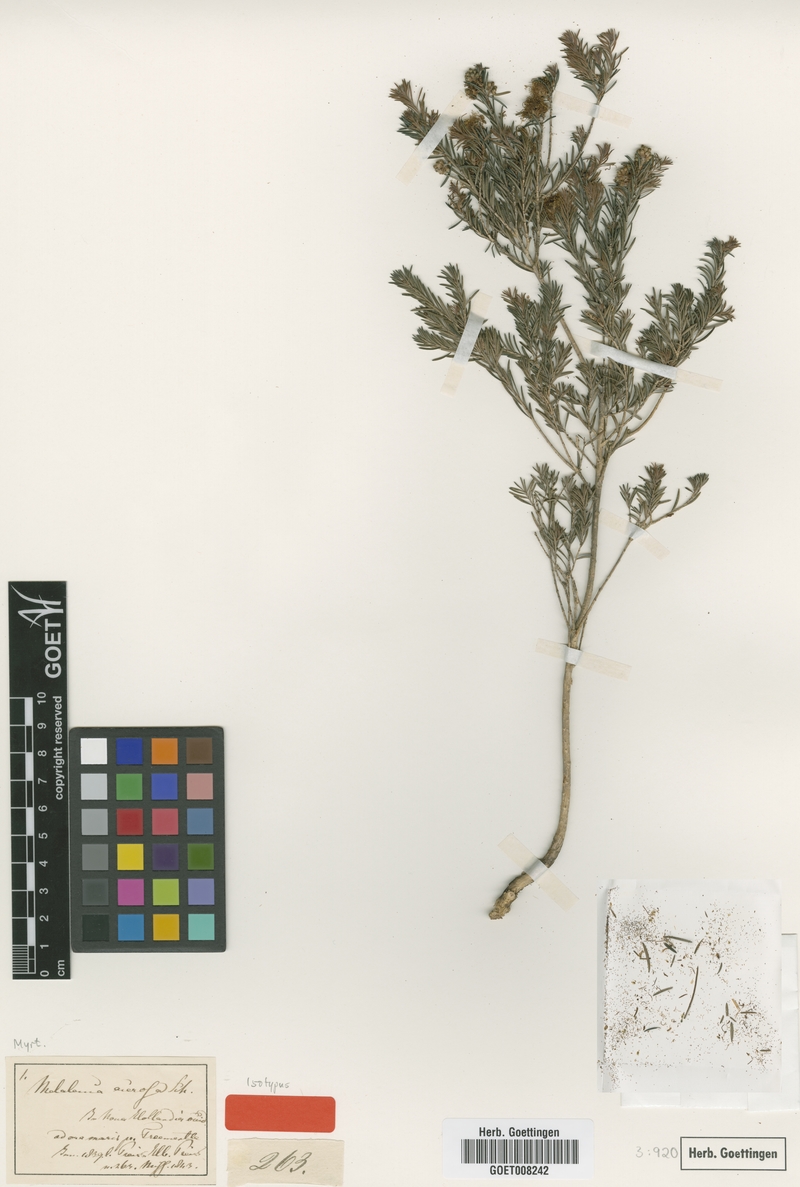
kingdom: Plantae
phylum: Tracheophyta
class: Magnoliopsida
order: Myrtales
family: Myrtaceae
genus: Melaleuca
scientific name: Melaleuca systena
